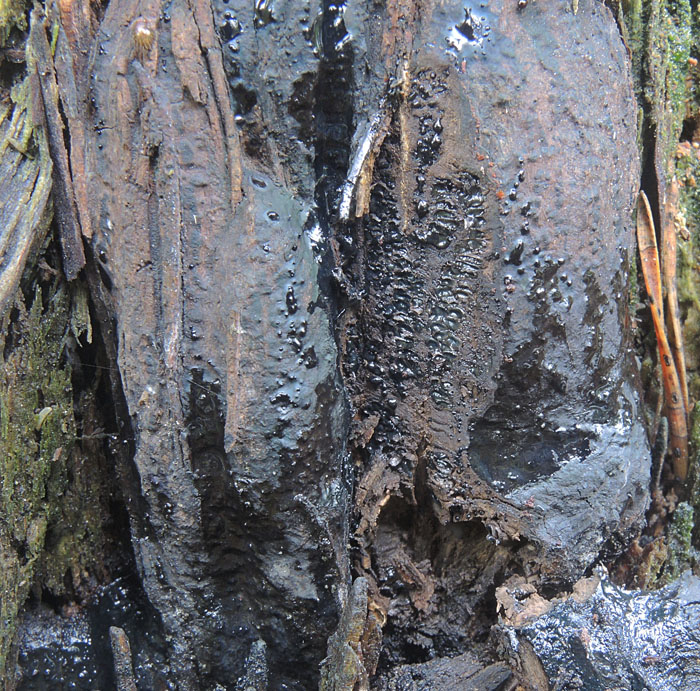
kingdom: Fungi
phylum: Ascomycota
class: Sordariomycetes
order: Boliniales
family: Boliniaceae
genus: Camarops
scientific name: Camarops tubulina
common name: knudret kulsnegl
